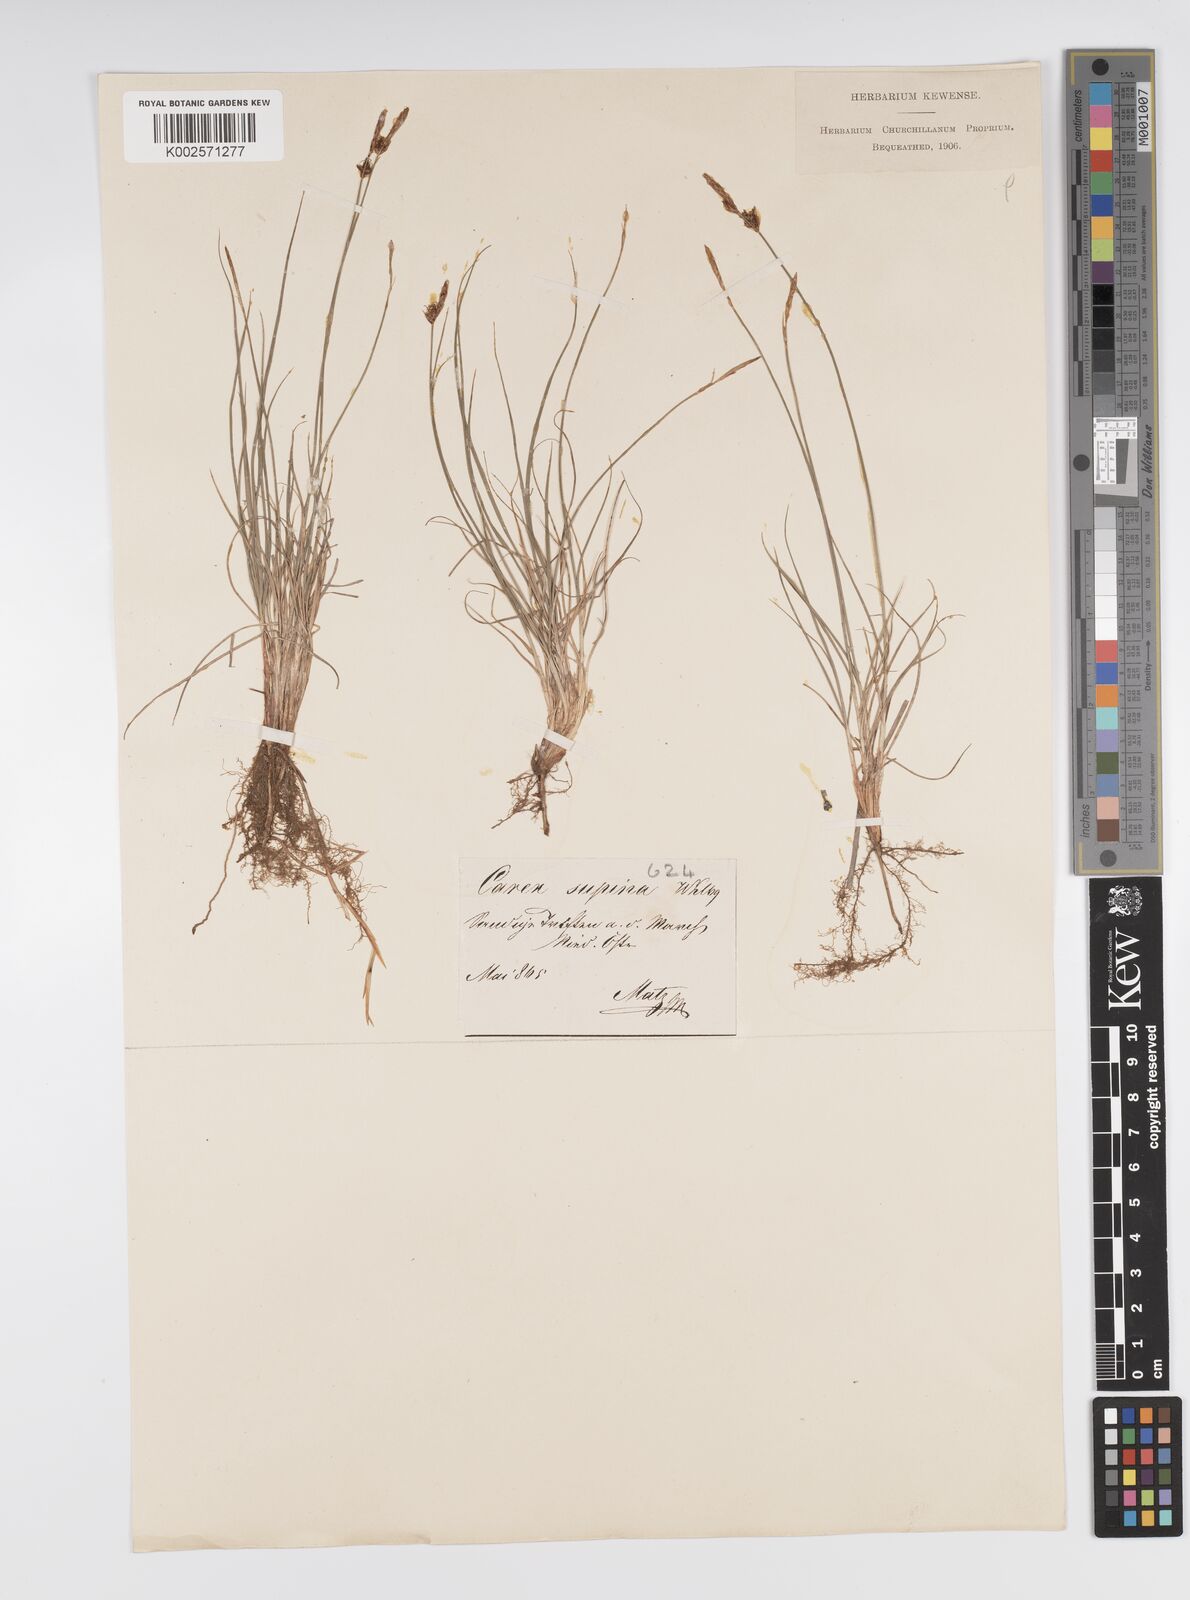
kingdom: Plantae
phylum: Tracheophyta
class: Liliopsida
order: Poales
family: Cyperaceae
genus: Carex
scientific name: Carex supina
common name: Lying-back sedge
